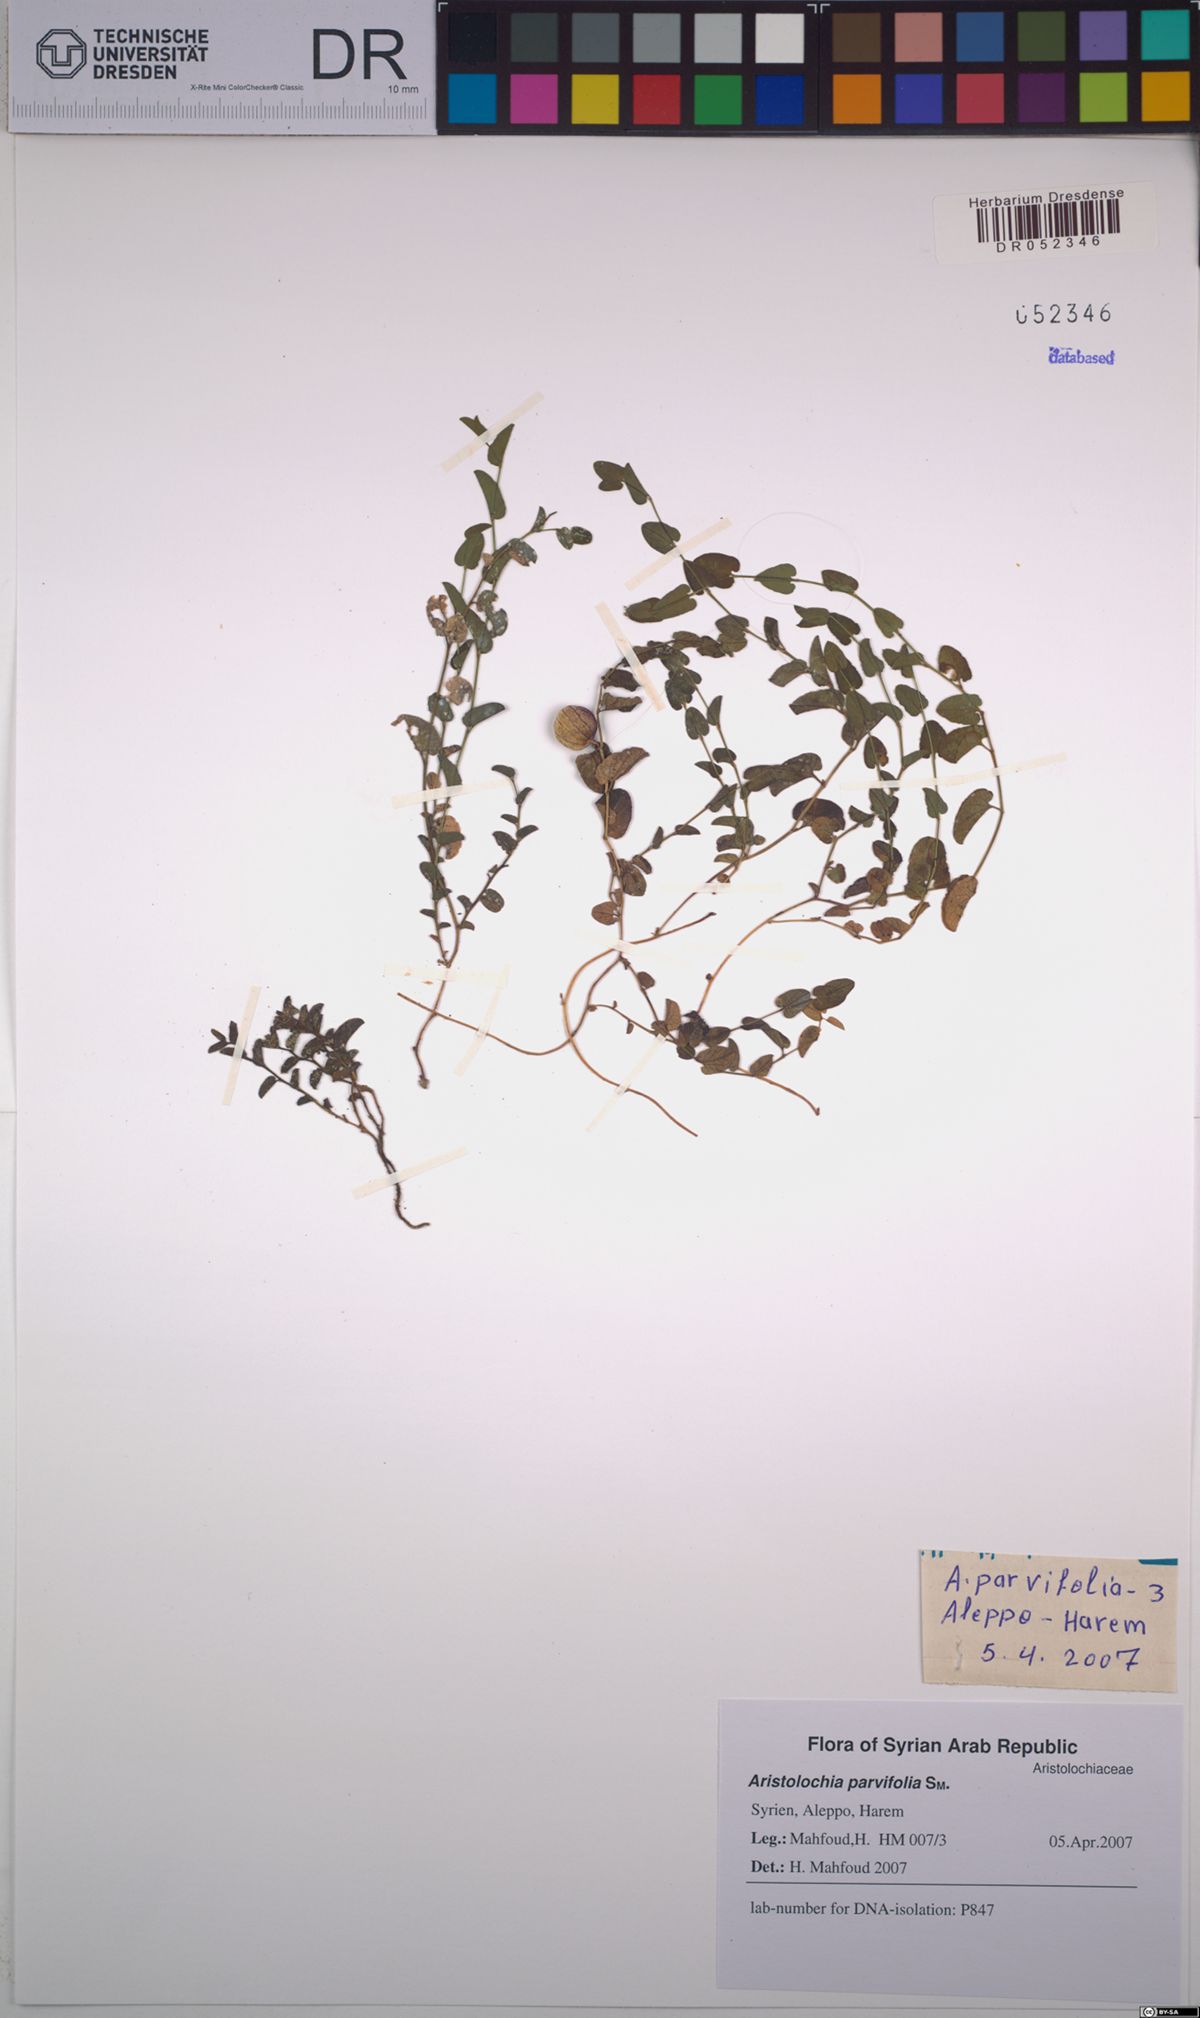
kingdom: Plantae
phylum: Tracheophyta
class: Magnoliopsida
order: Piperales
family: Aristolochiaceae
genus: Aristolochia
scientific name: Aristolochia parvifolia
